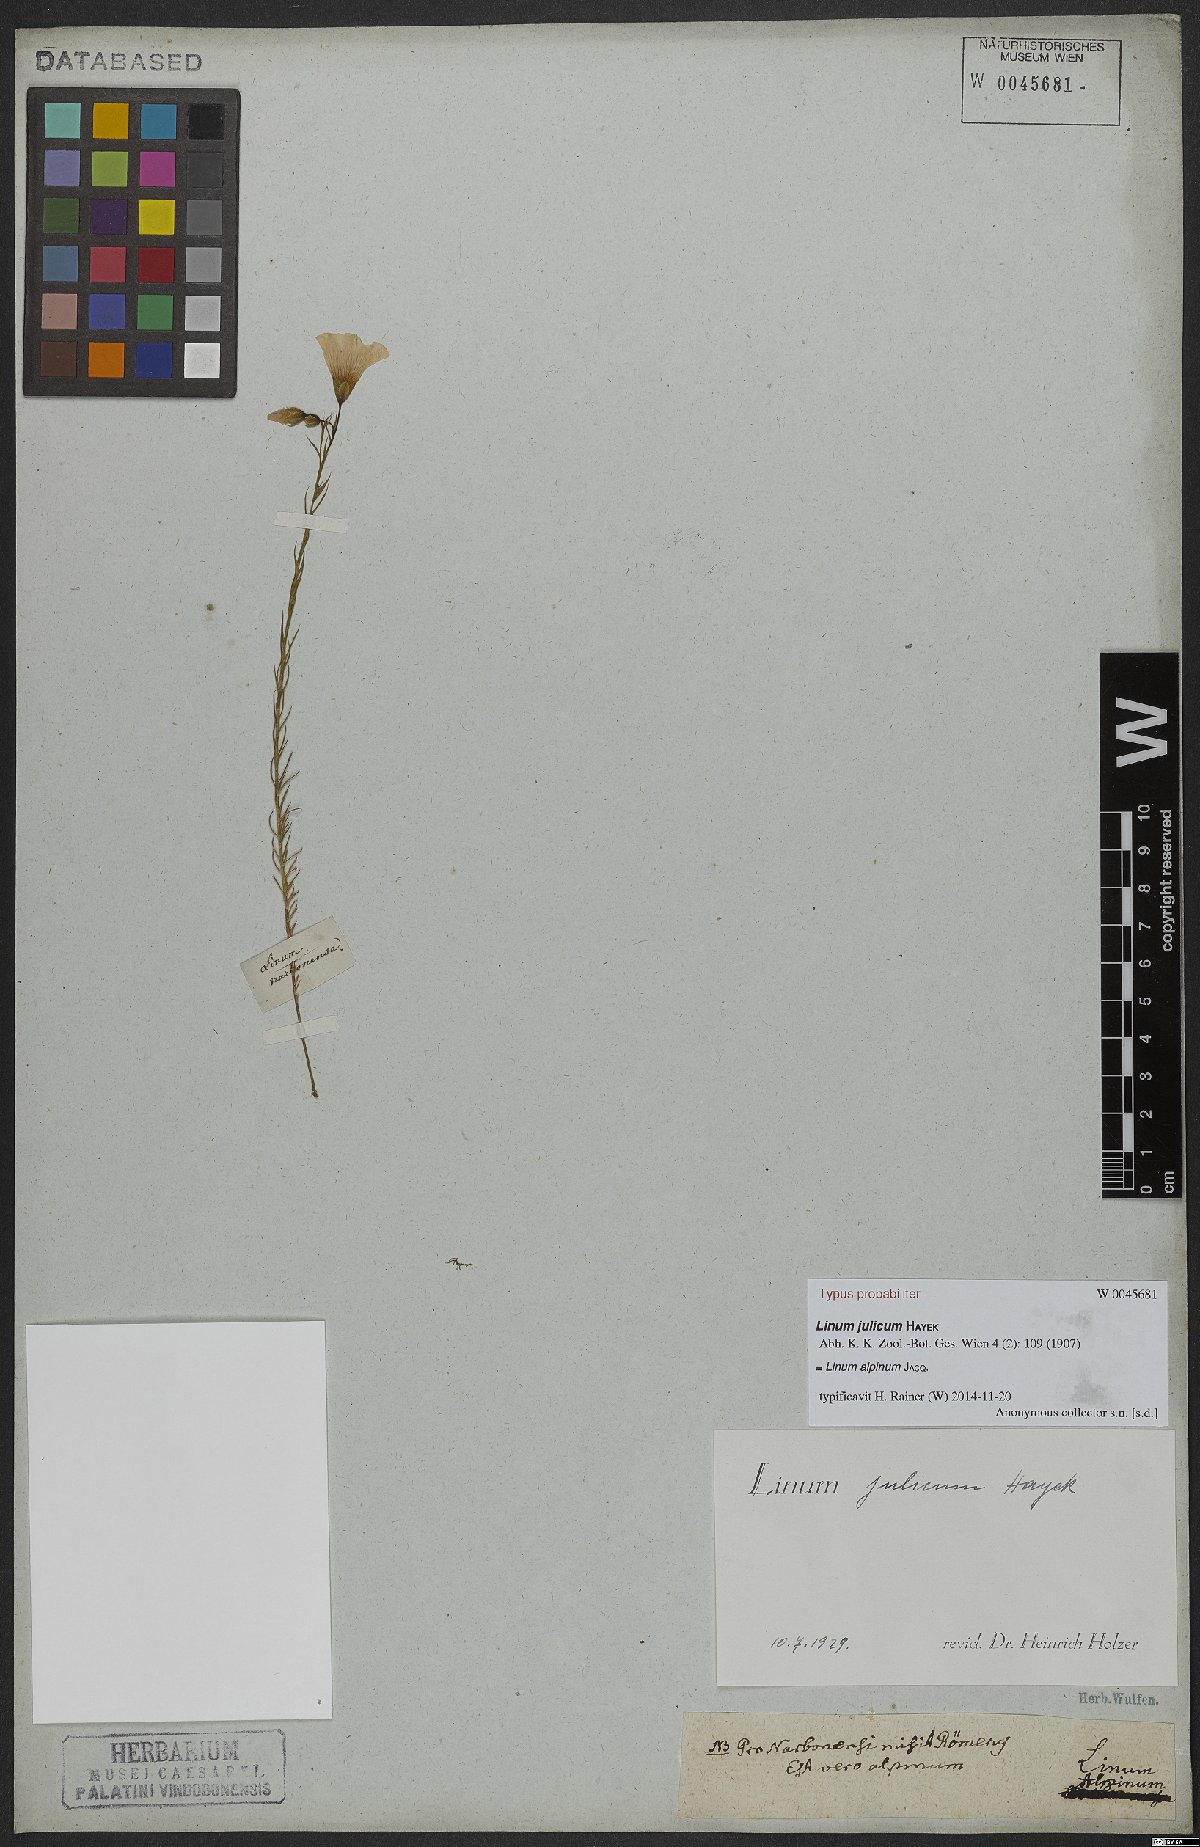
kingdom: Plantae
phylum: Tracheophyta
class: Magnoliopsida
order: Malpighiales
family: Linaceae
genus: Linum
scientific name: Linum alpinum
